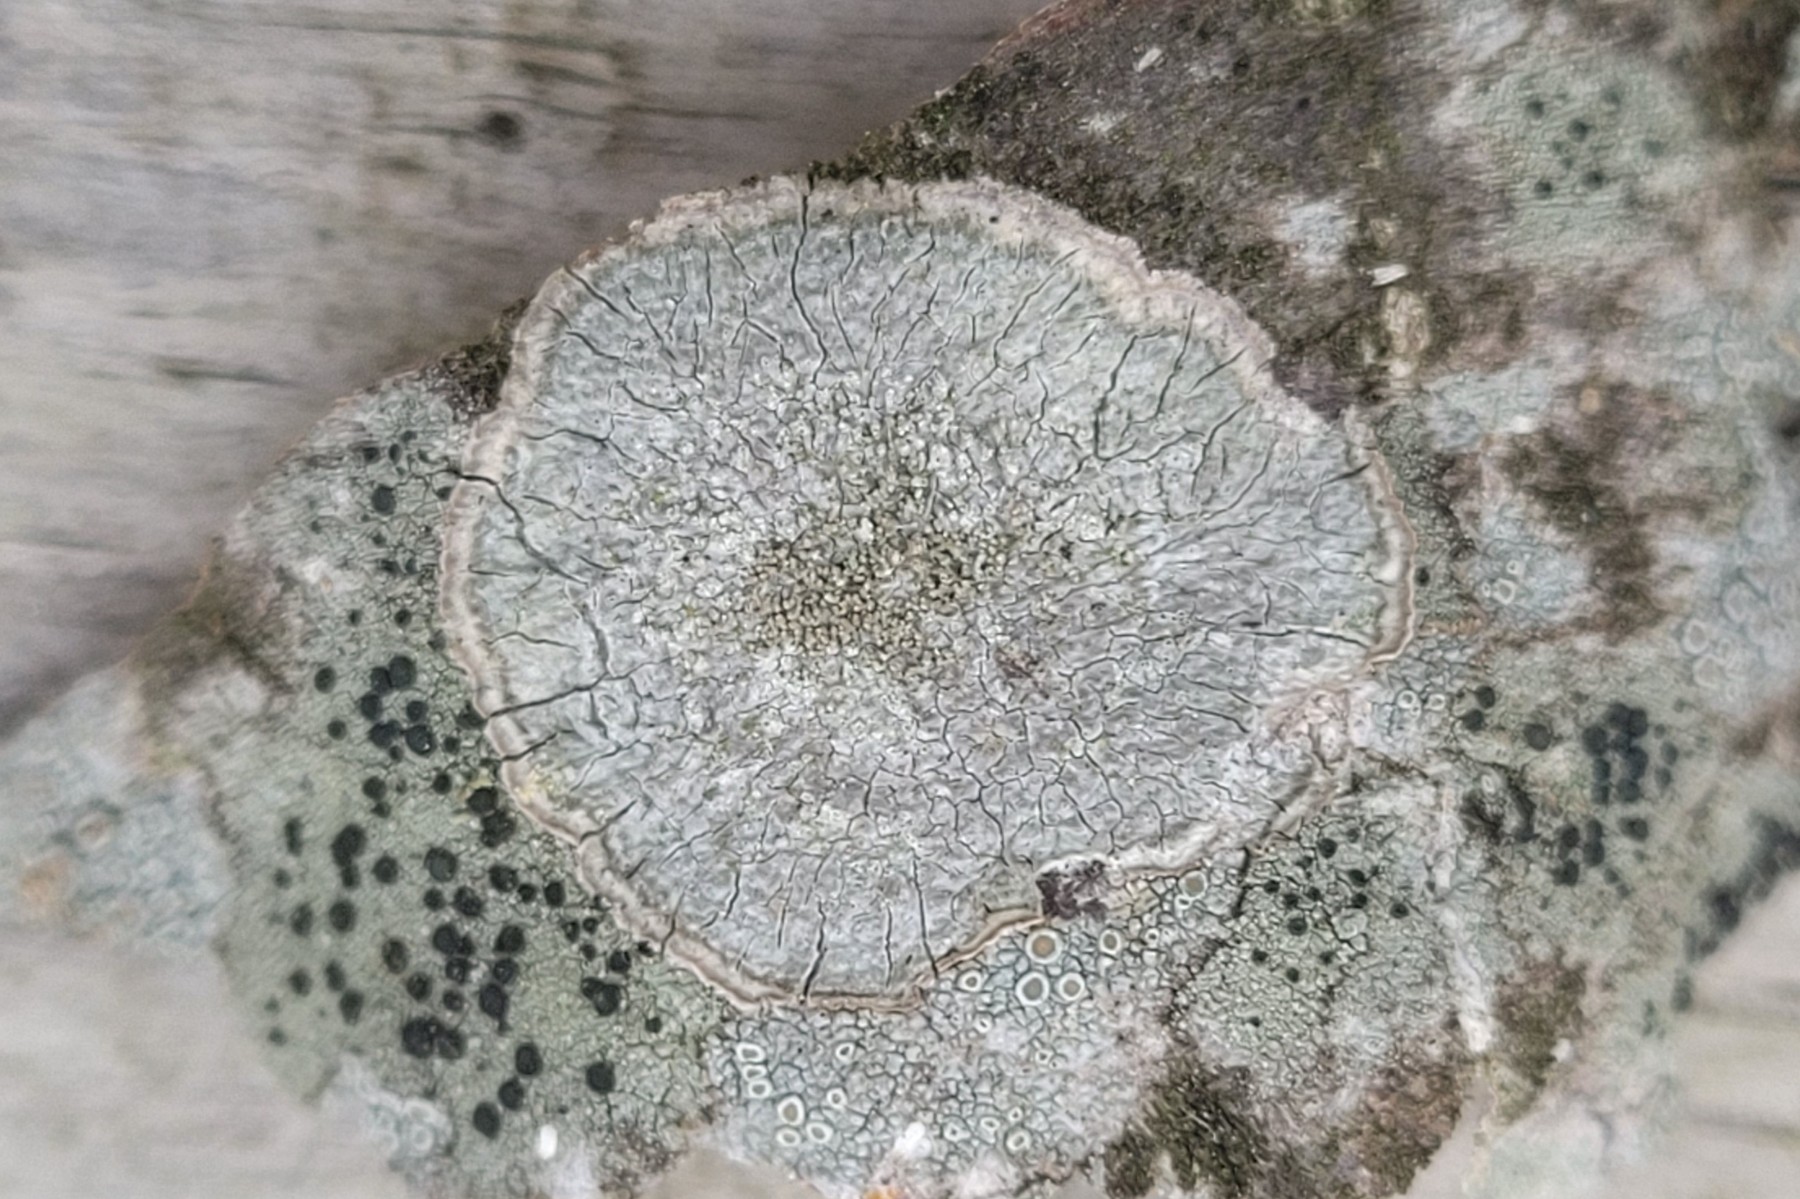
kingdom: Fungi
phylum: Ascomycota
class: Lecanoromycetes
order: Pertusariales
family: Pertusariaceae
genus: Pertusaria
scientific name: Pertusaria coccodes
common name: skurvet prikvortelav
